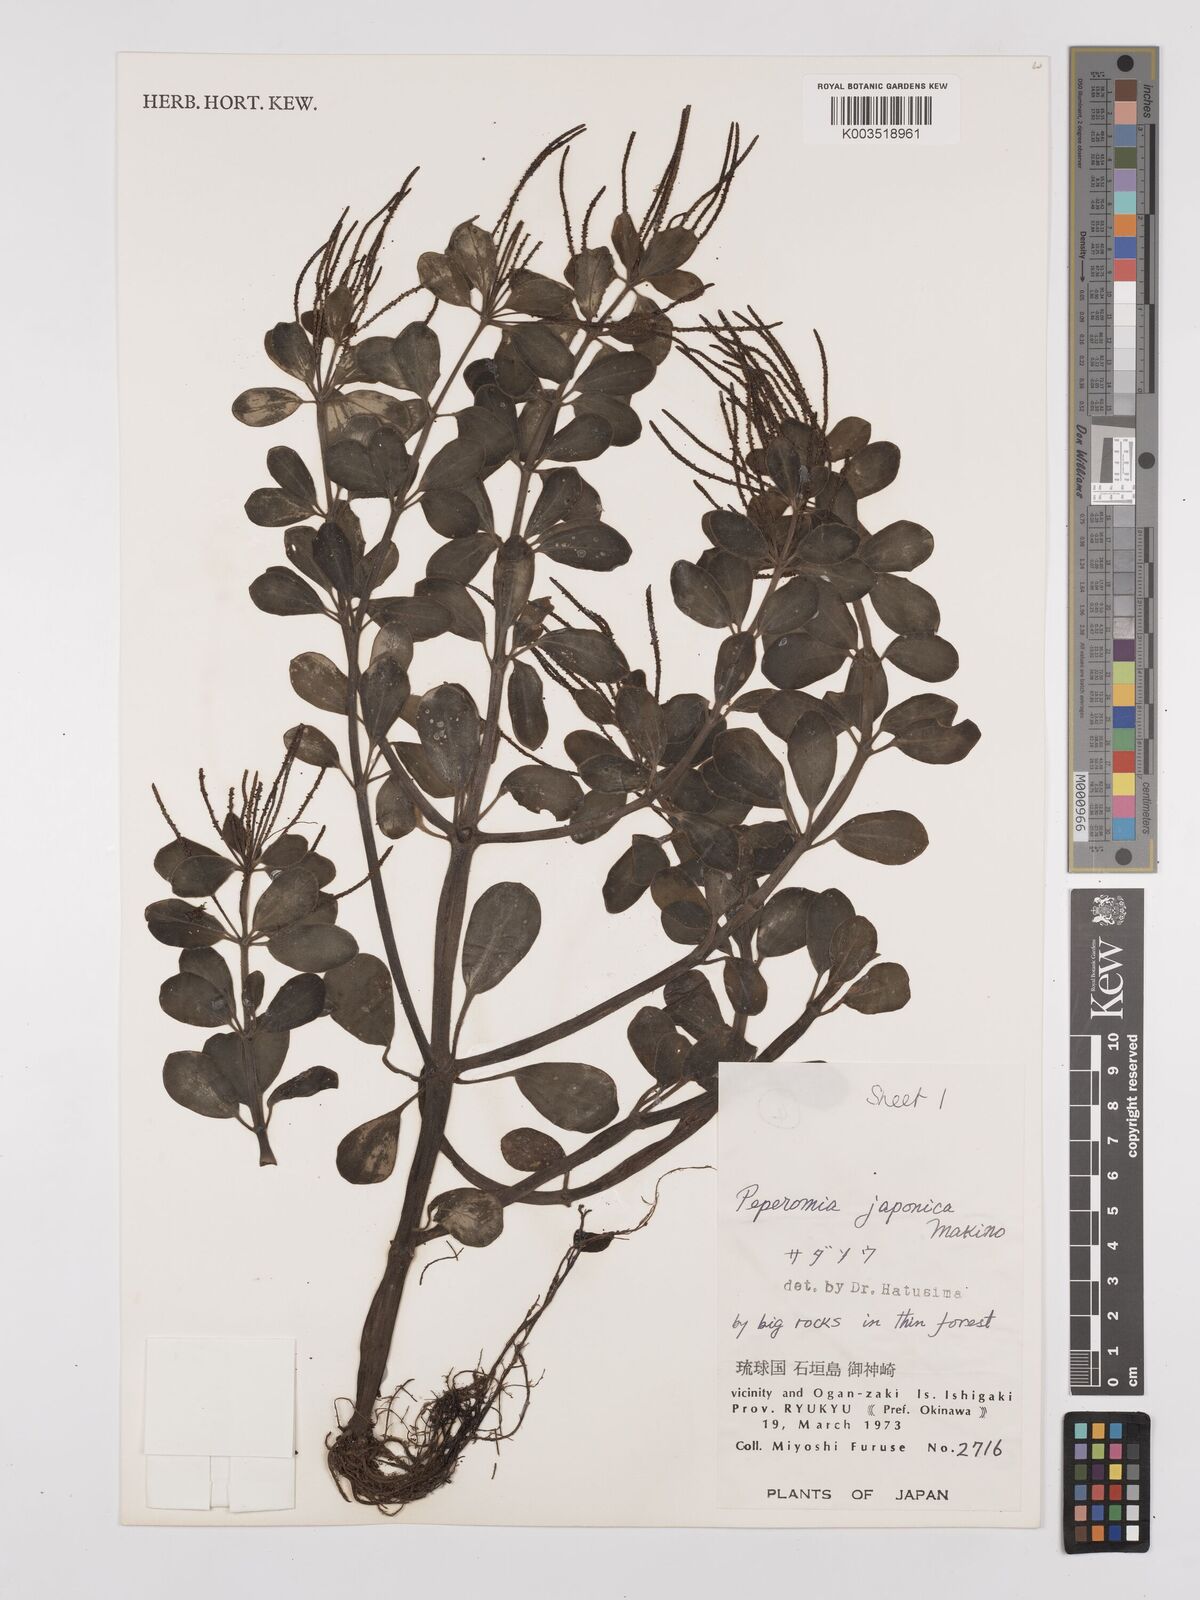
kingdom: Plantae
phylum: Tracheophyta
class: Magnoliopsida
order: Piperales
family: Piperaceae
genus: Peperomia
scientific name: Peperomia japonica
